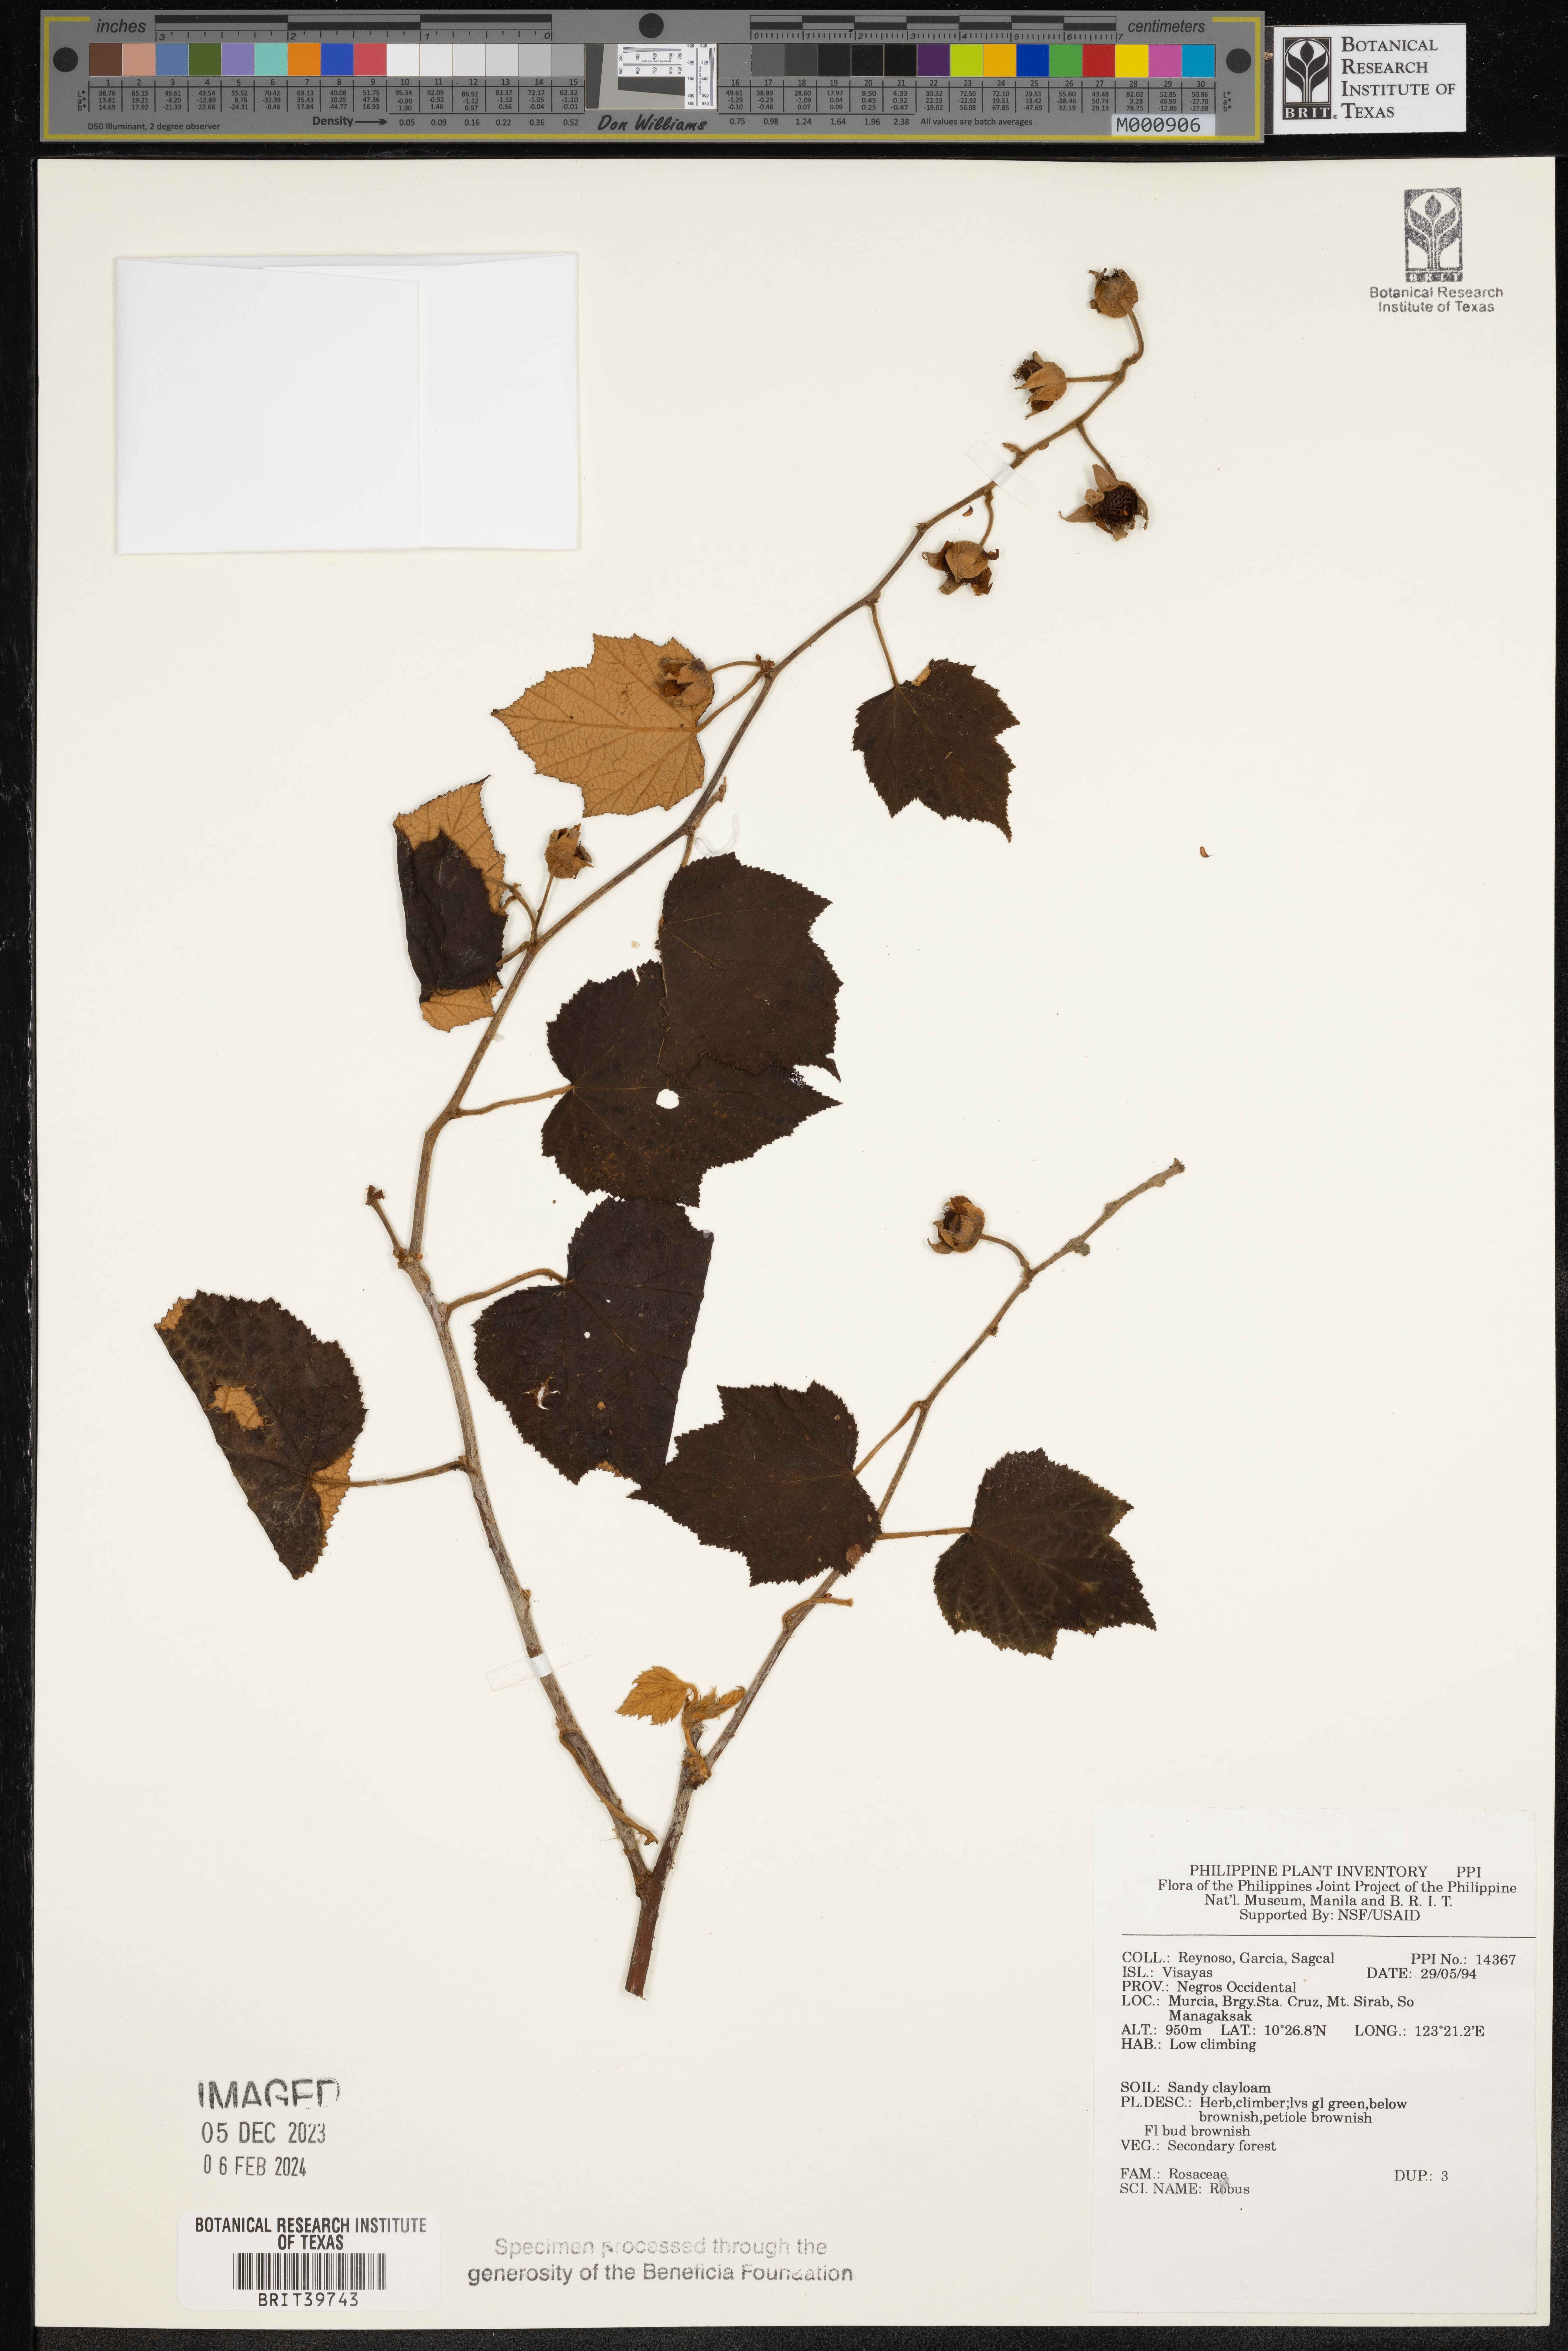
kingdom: Plantae
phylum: Tracheophyta
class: Magnoliopsida
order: Rosales
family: Rosaceae
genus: Rubus
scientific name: Rubus
